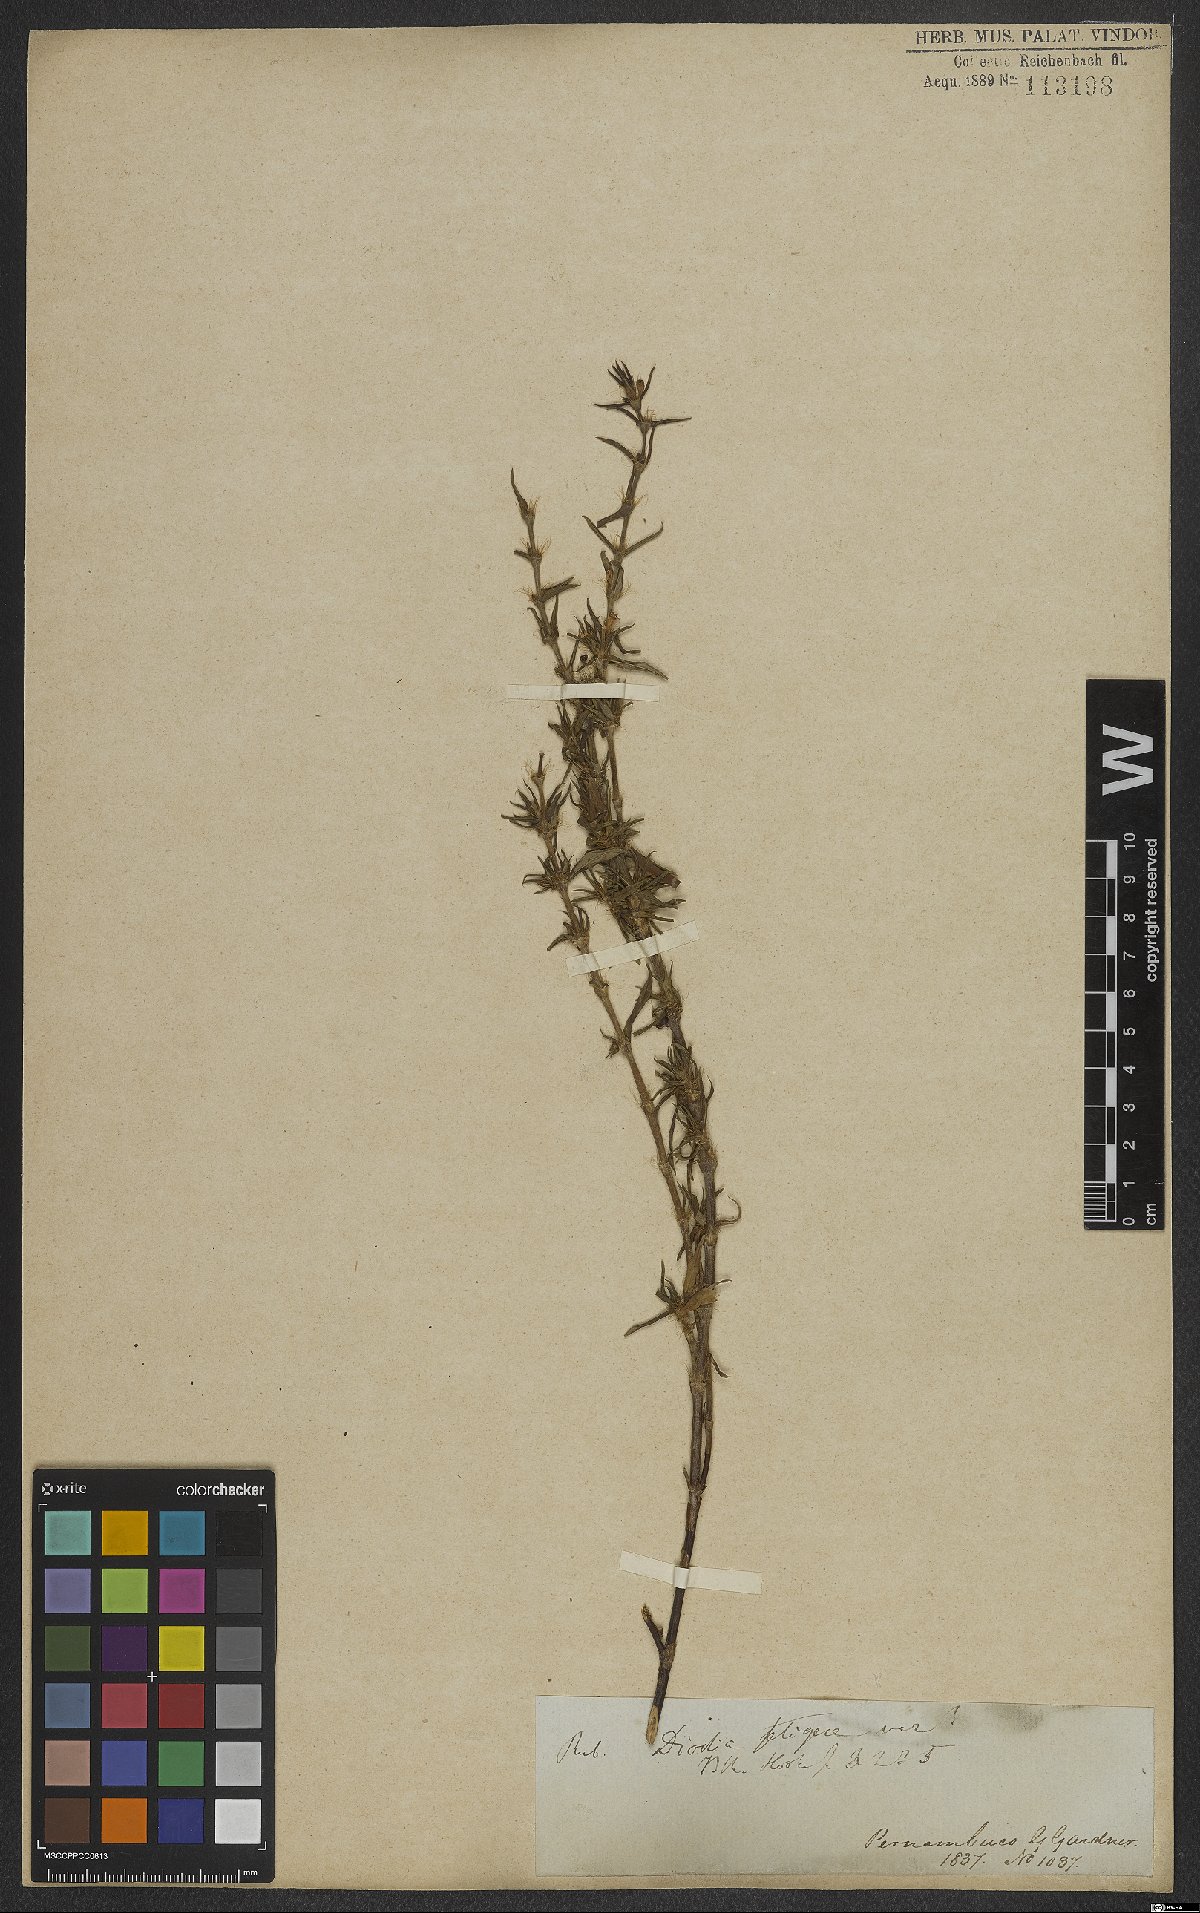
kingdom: Plantae
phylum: Tracheophyta
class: Magnoliopsida
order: Gentianales
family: Rubiaceae
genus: Hexasepalum
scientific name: Hexasepalum apiculatum
